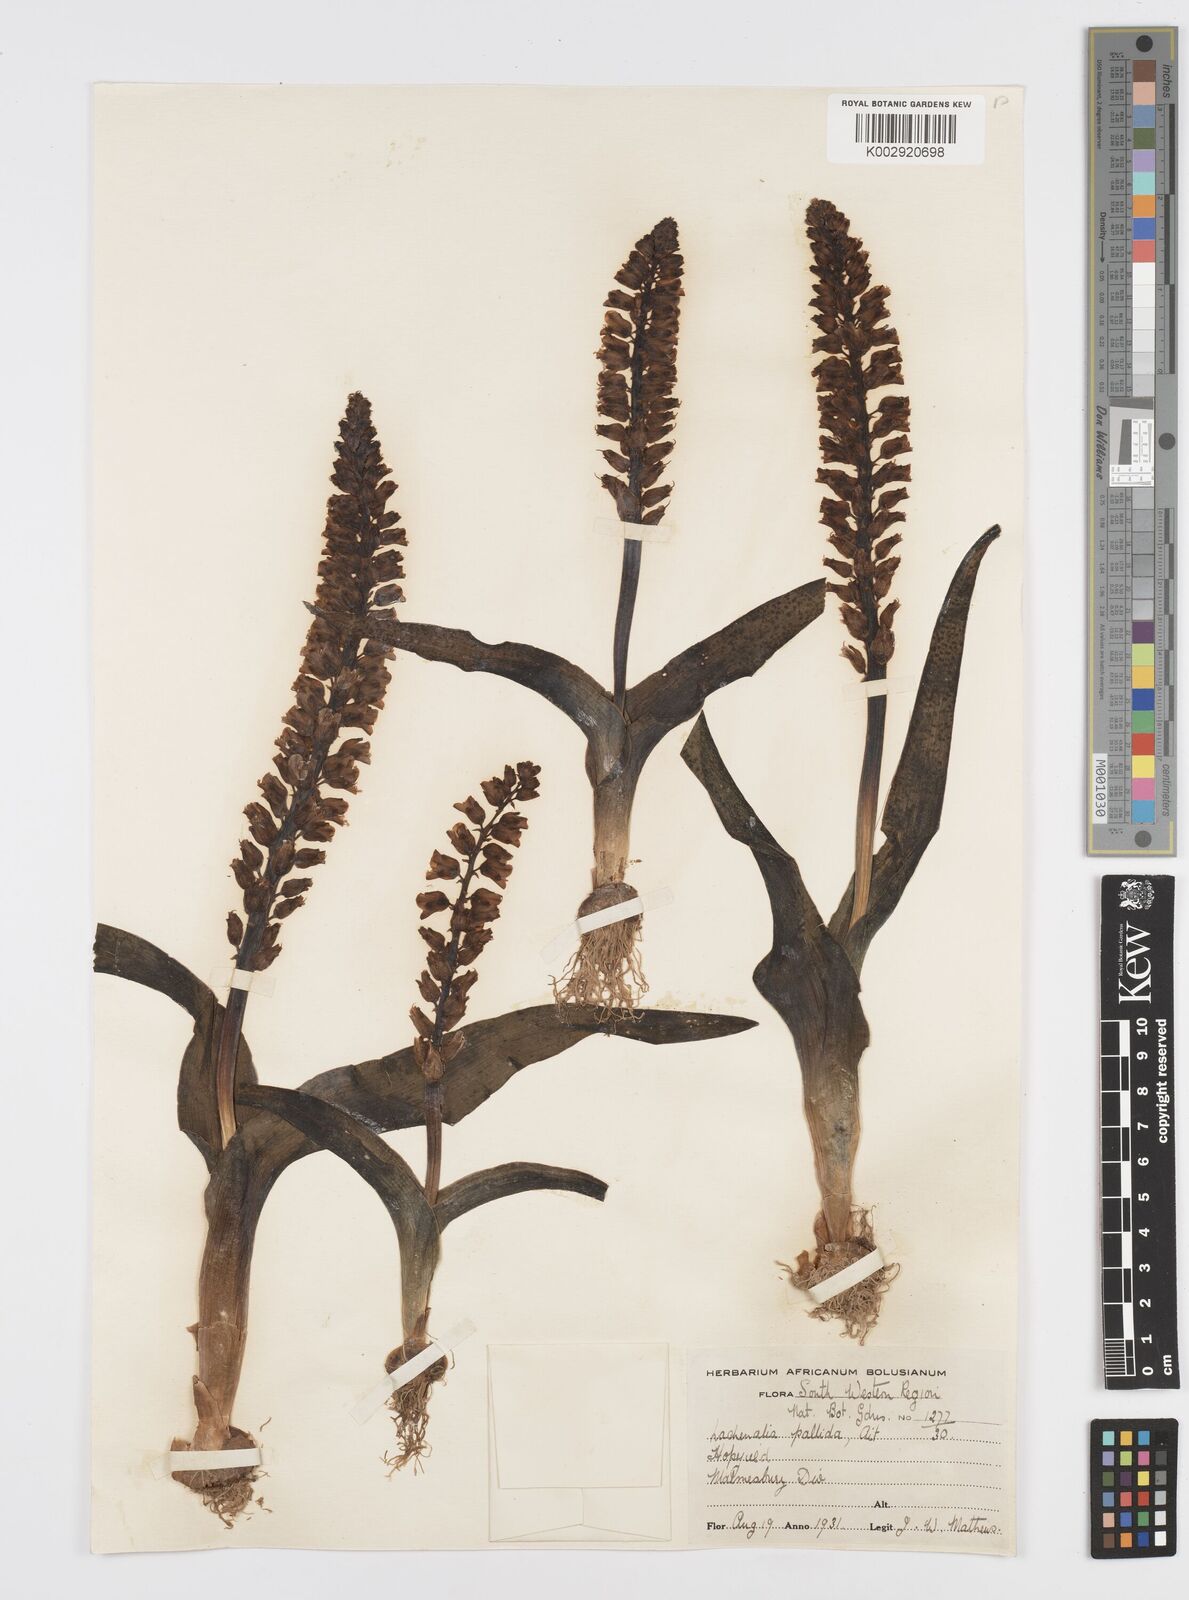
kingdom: Plantae
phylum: Tracheophyta
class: Liliopsida
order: Asparagales
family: Asparagaceae
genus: Lachenalia
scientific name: Lachenalia pallida
